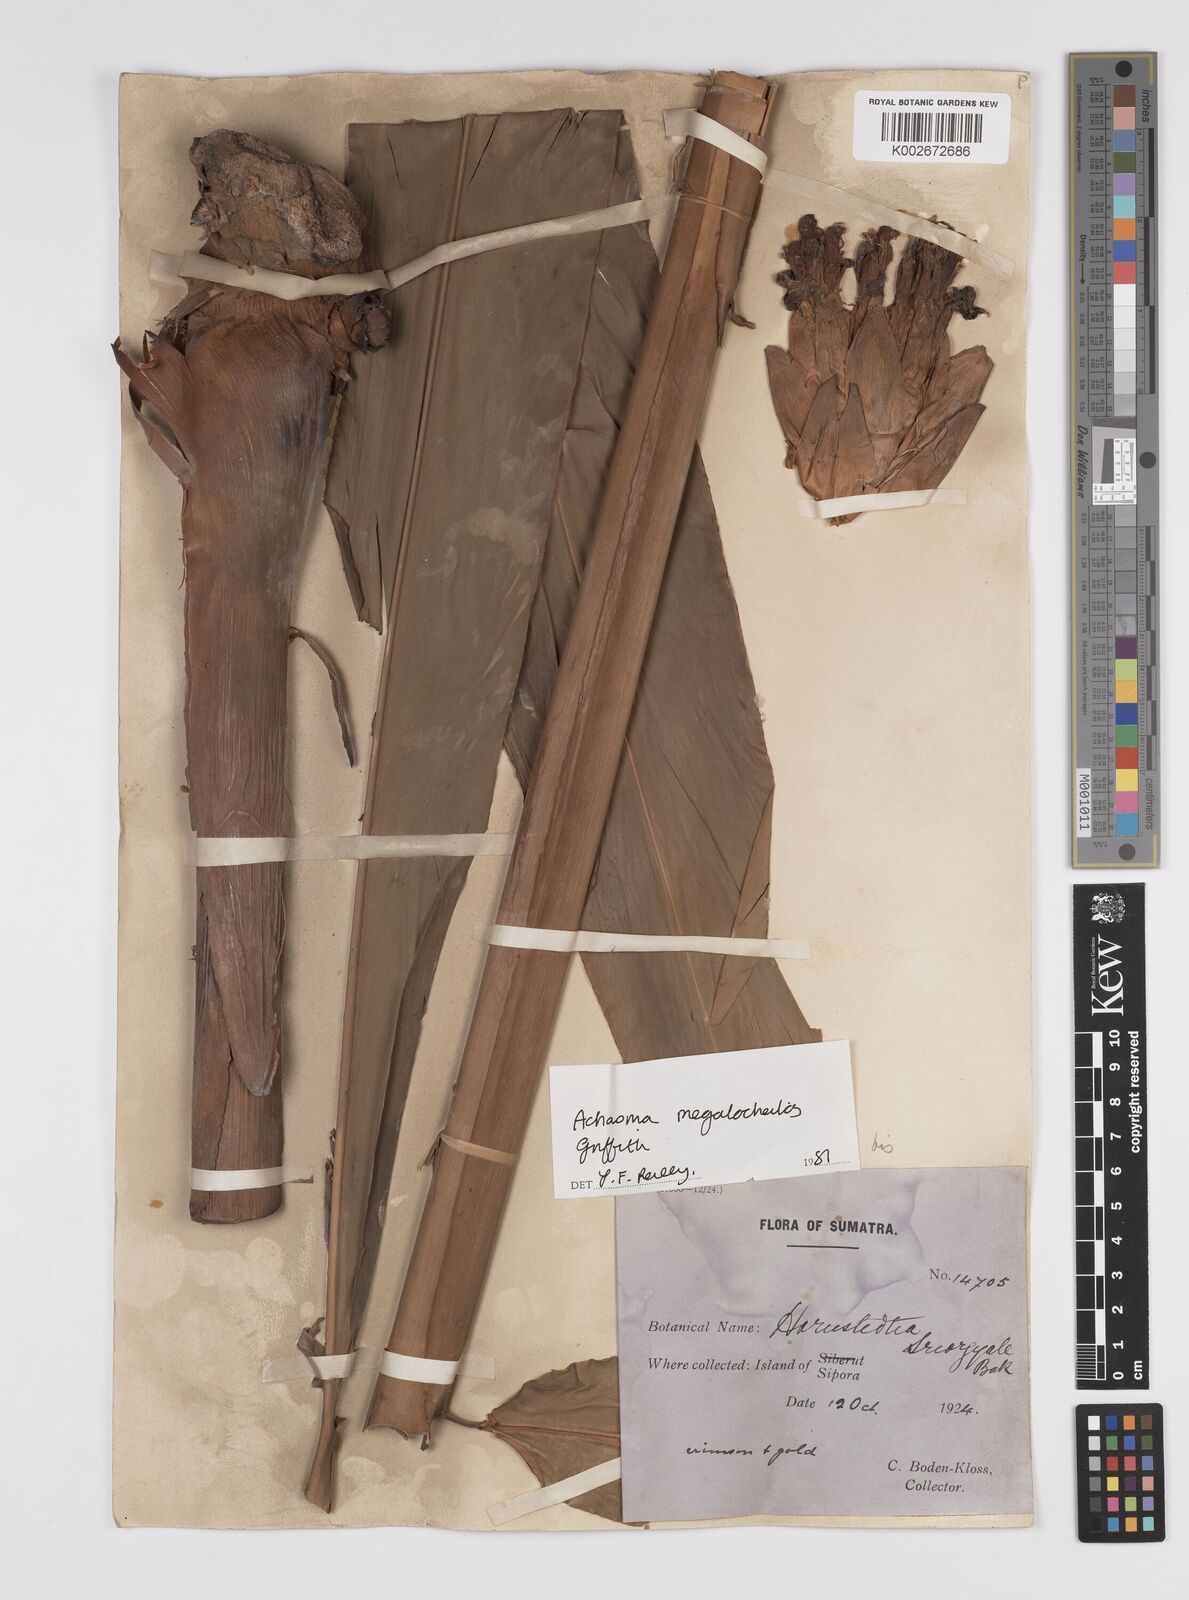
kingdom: Plantae
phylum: Tracheophyta
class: Liliopsida
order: Zingiberales
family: Zingiberaceae
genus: Etlingera
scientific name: Etlingera littoralis
